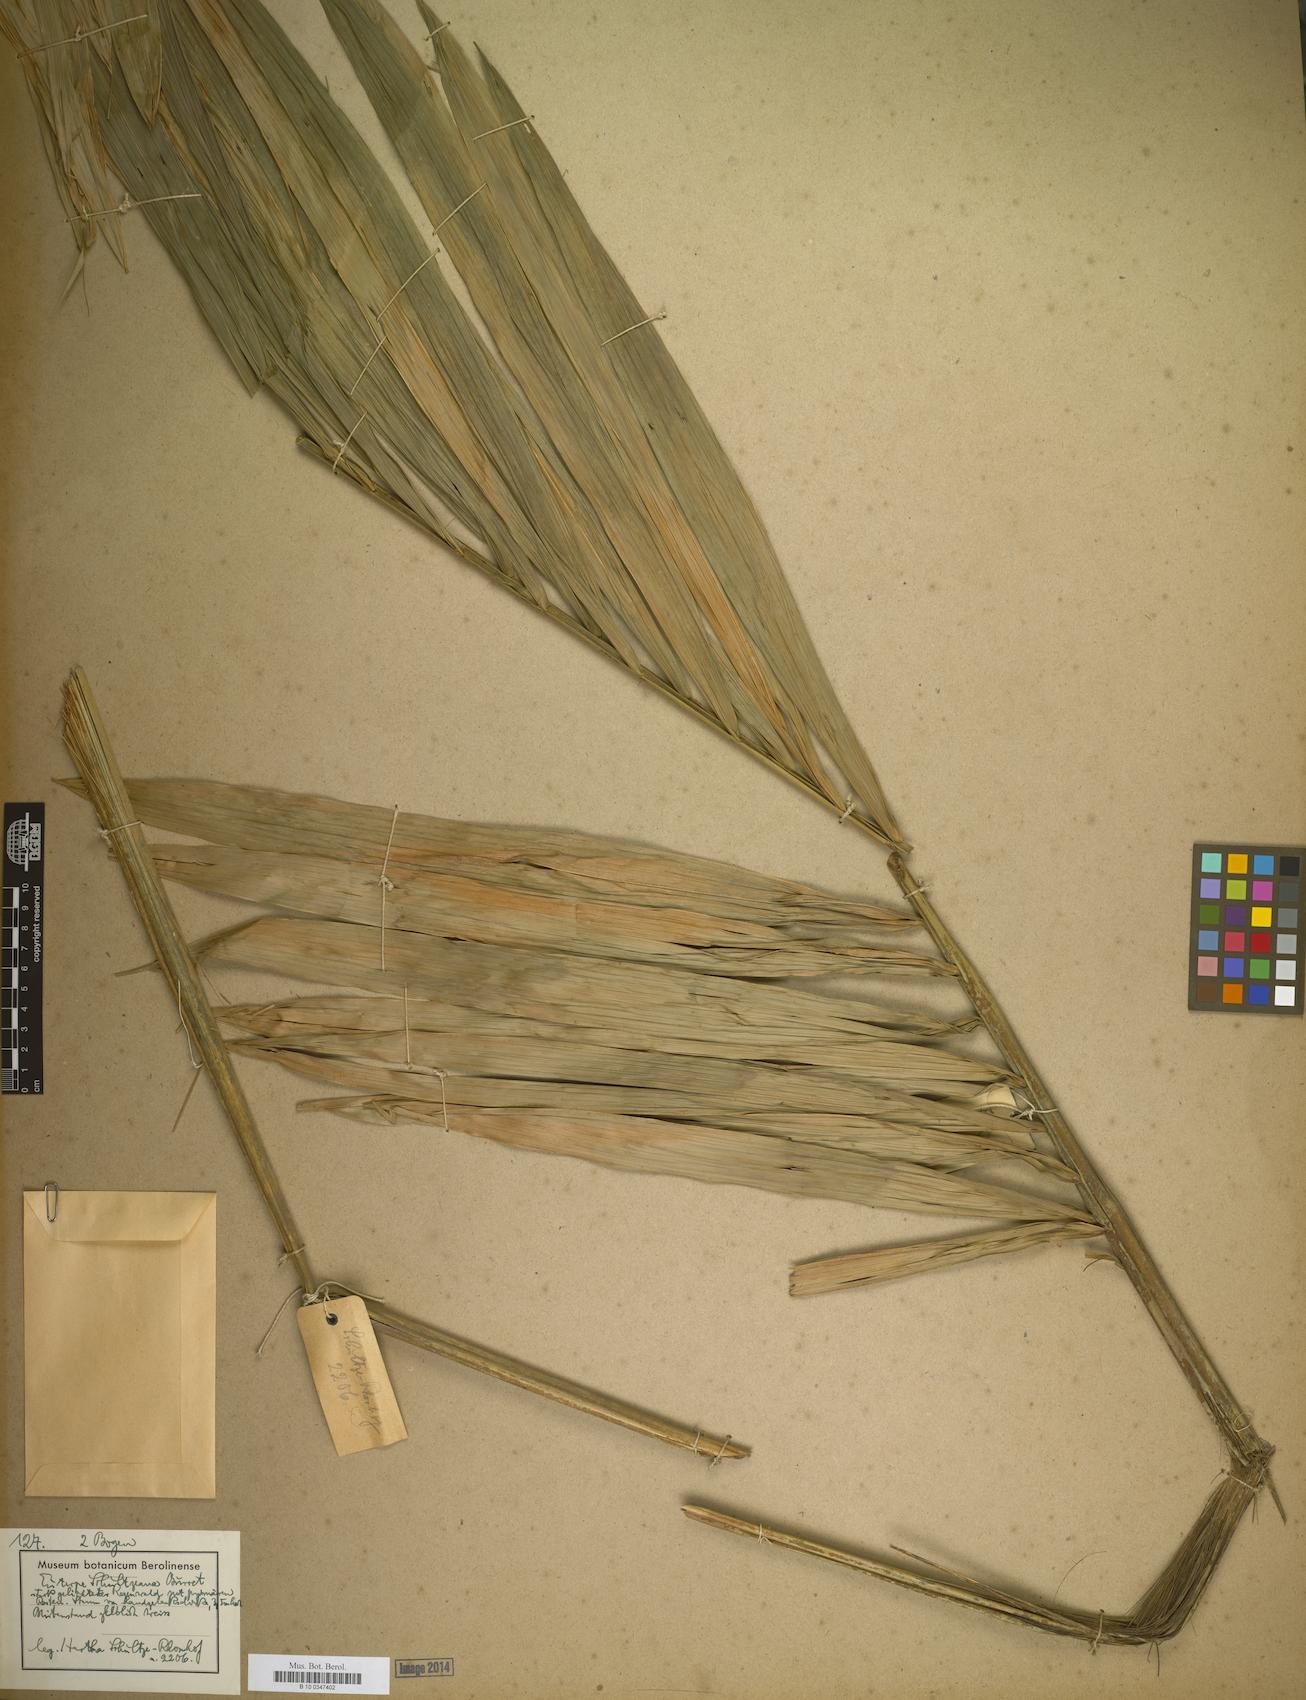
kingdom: Plantae
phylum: Tracheophyta
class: Liliopsida
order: Arecales
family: Arecaceae
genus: Euterpe
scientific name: Euterpe
